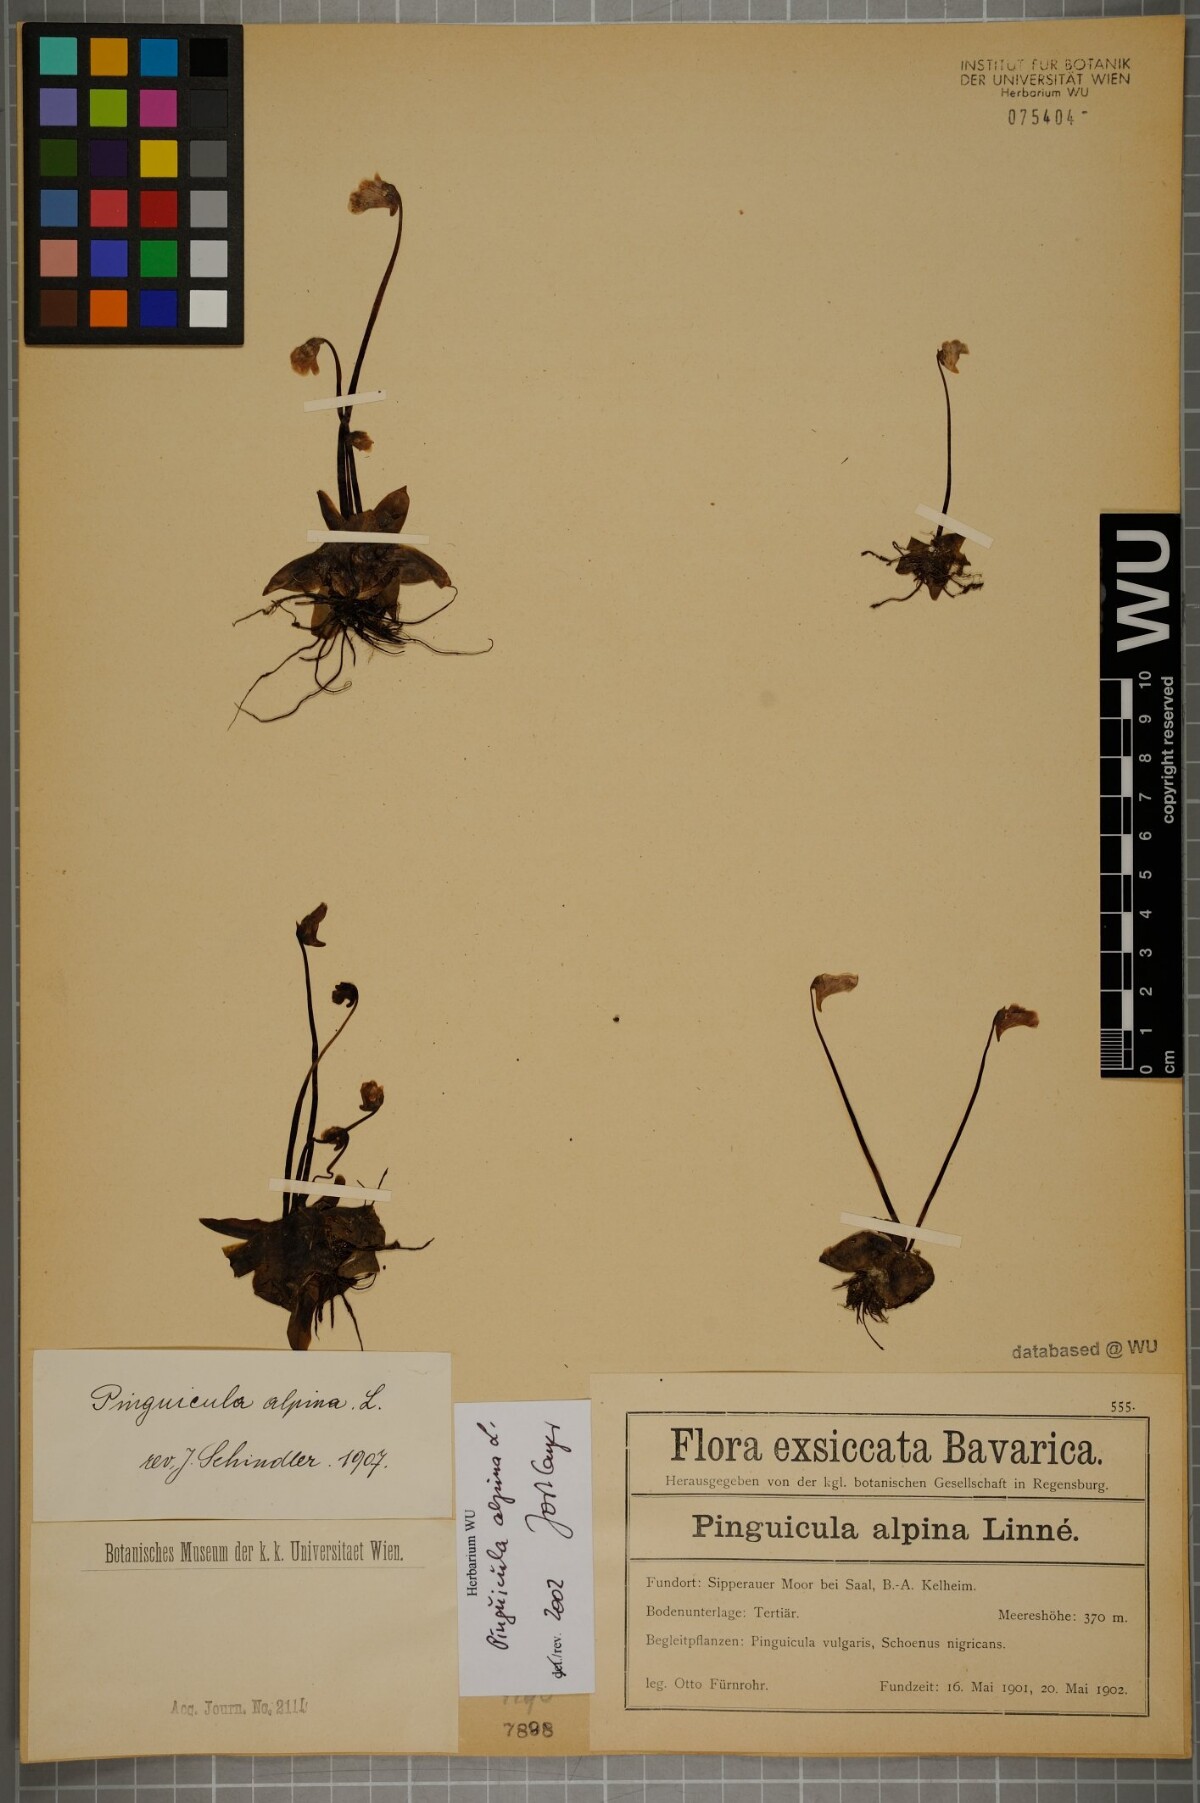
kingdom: Plantae
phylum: Tracheophyta
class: Magnoliopsida
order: Lamiales
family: Lentibulariaceae
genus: Pinguicula
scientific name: Pinguicula alpina
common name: Alpine butterwort
